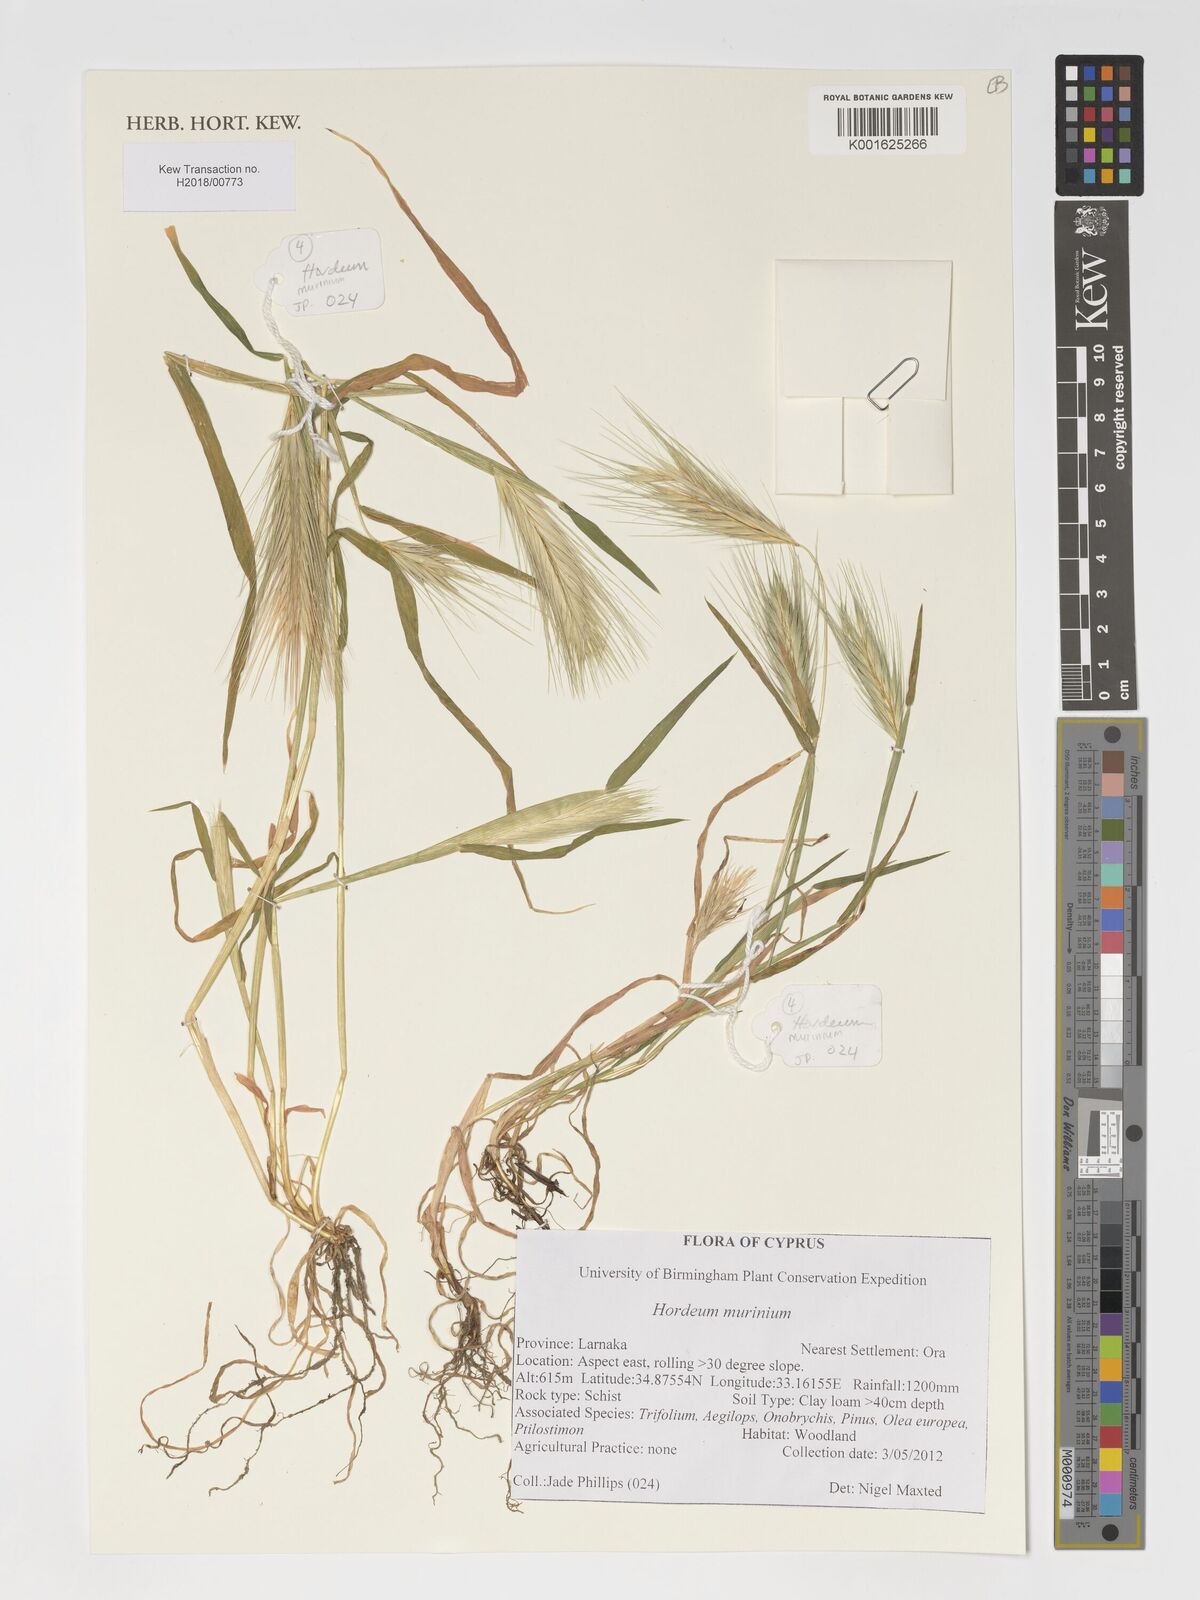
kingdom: Plantae
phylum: Tracheophyta
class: Liliopsida
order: Poales
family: Poaceae
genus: Hordeum
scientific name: Hordeum murinum
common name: Wall barley
